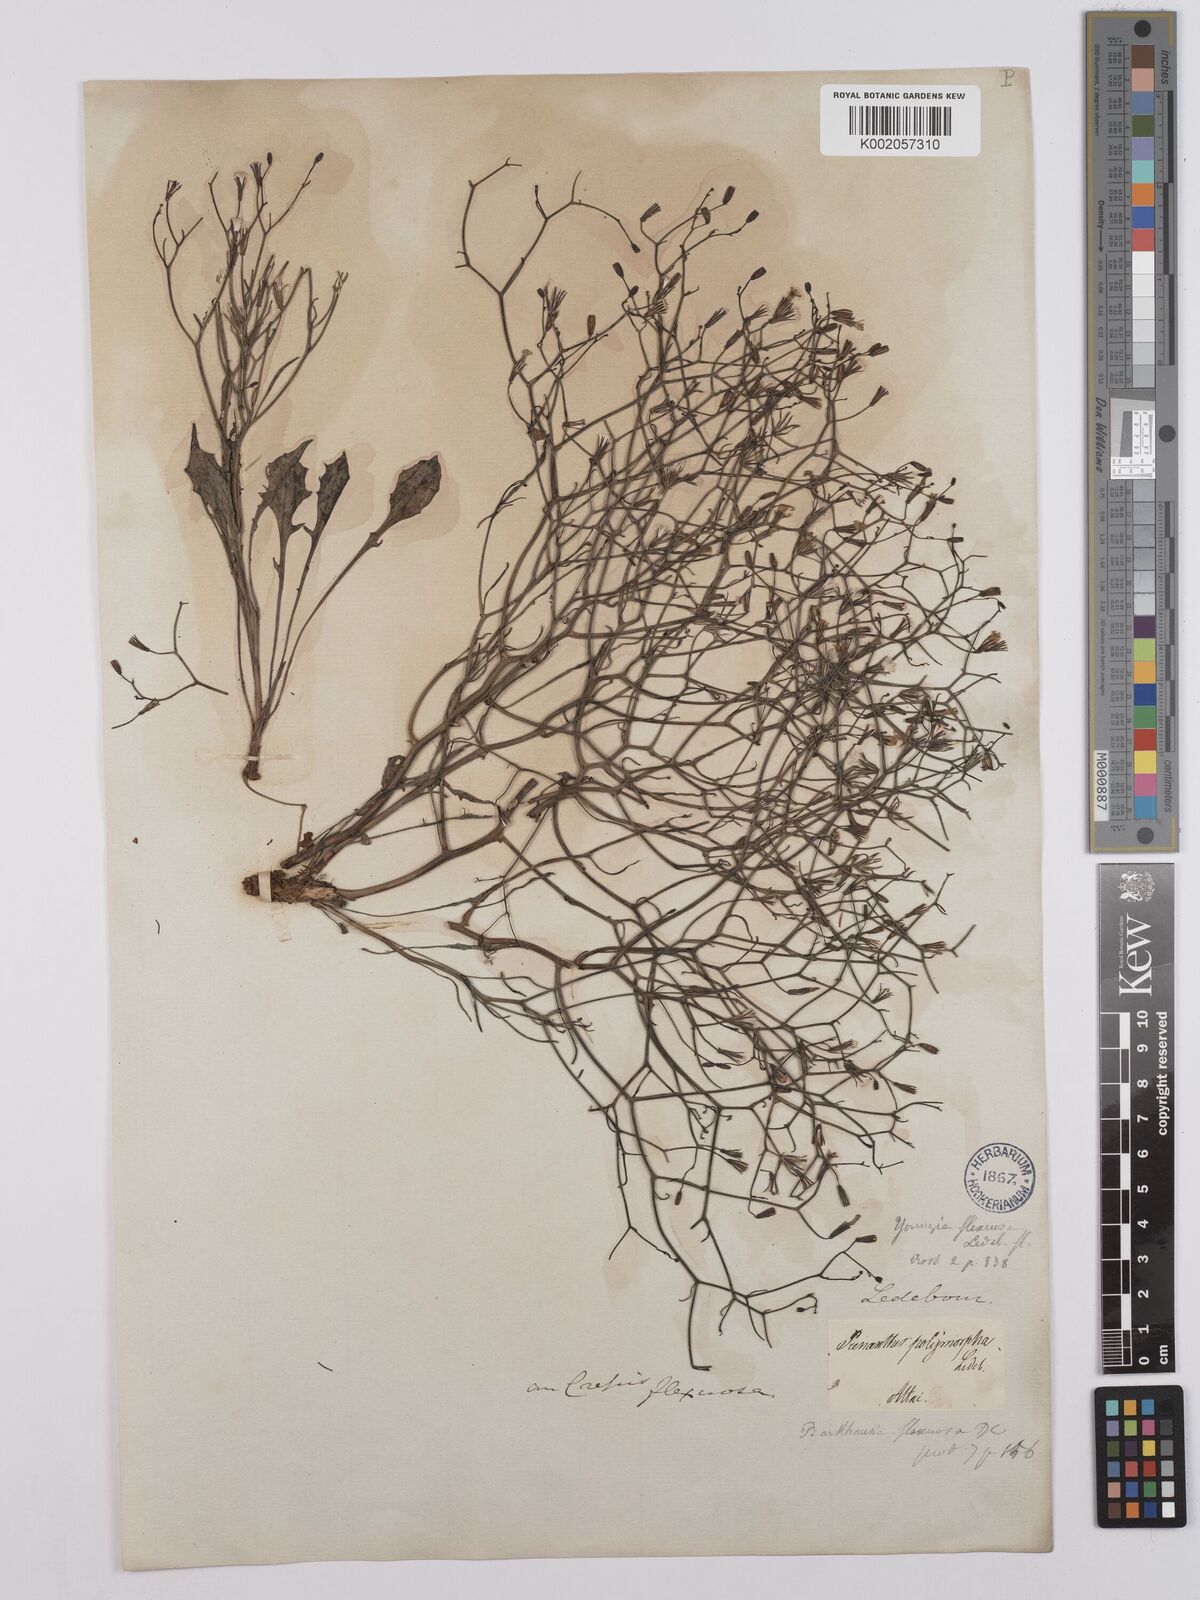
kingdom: Plantae
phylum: Tracheophyta
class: Magnoliopsida
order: Asterales
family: Asteraceae
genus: Crepis
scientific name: Crepis
